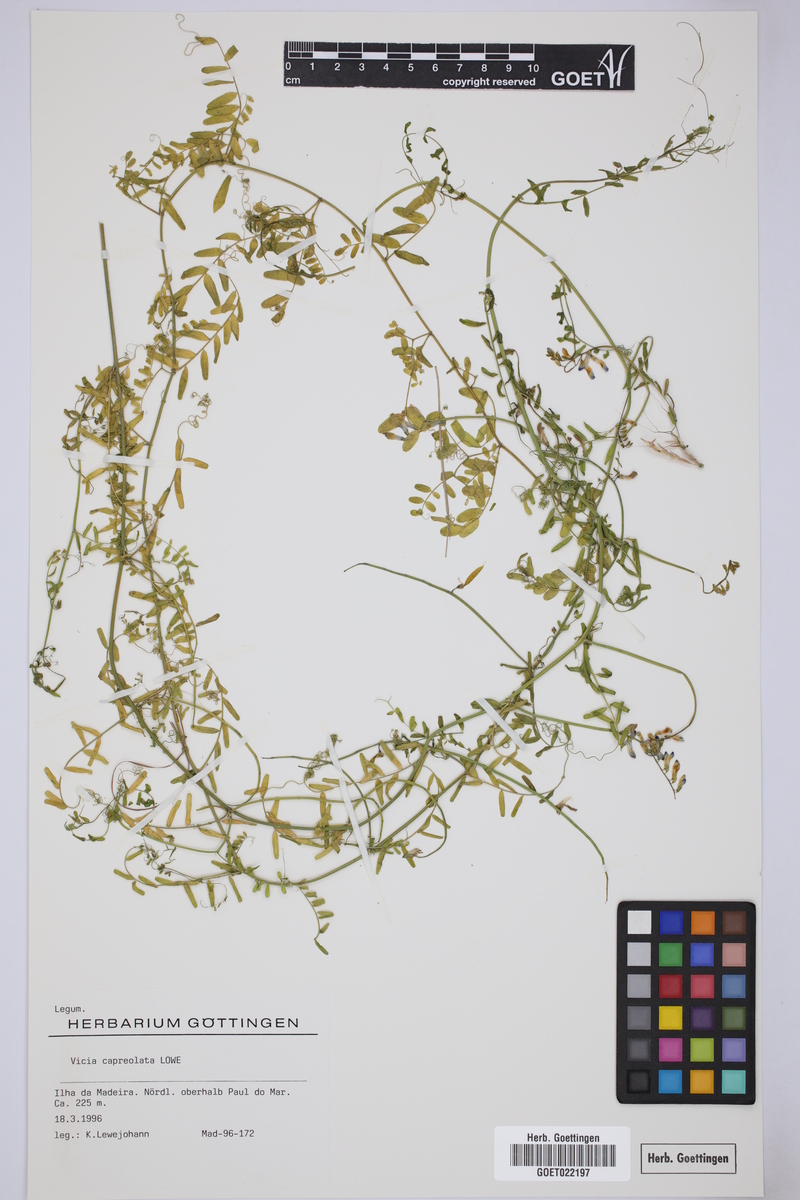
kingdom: Plantae
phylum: Tracheophyta
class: Magnoliopsida
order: Fabales
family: Fabaceae
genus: Vicia
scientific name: Vicia capreolata
